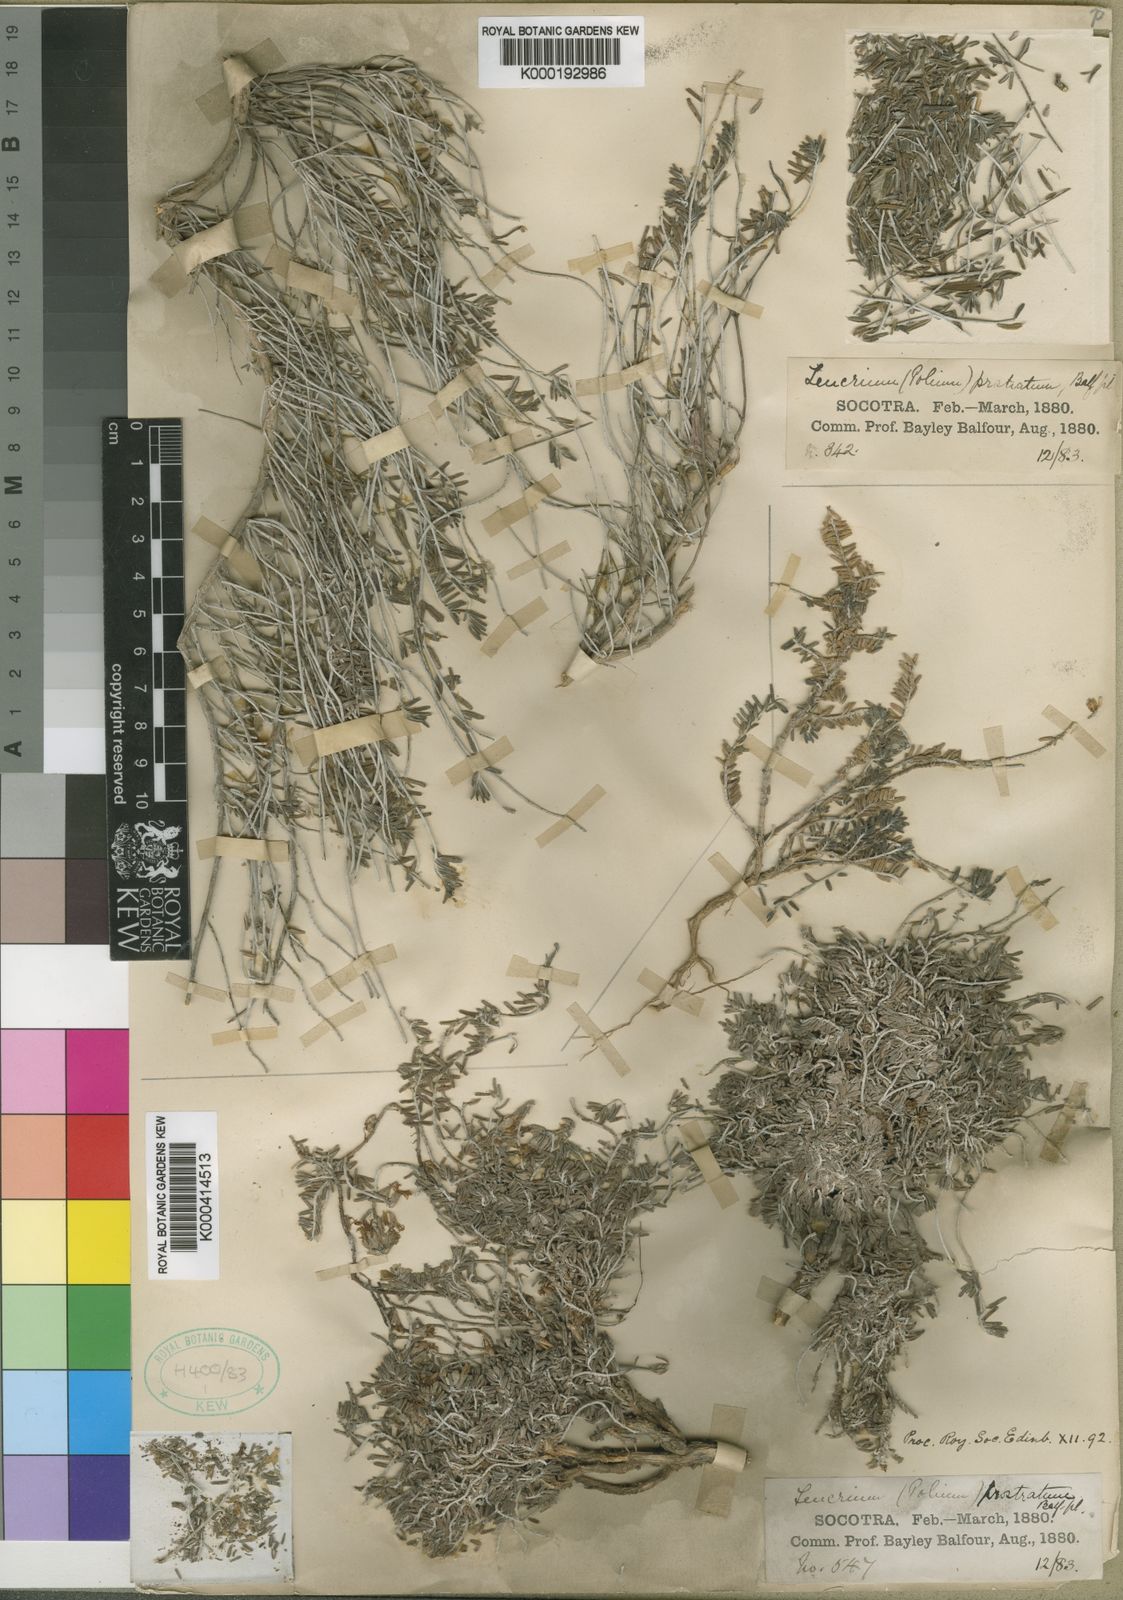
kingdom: Plantae
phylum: Tracheophyta
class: Magnoliopsida
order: Lamiales
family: Lamiaceae
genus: Teucrium
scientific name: Teucrium balfourii
